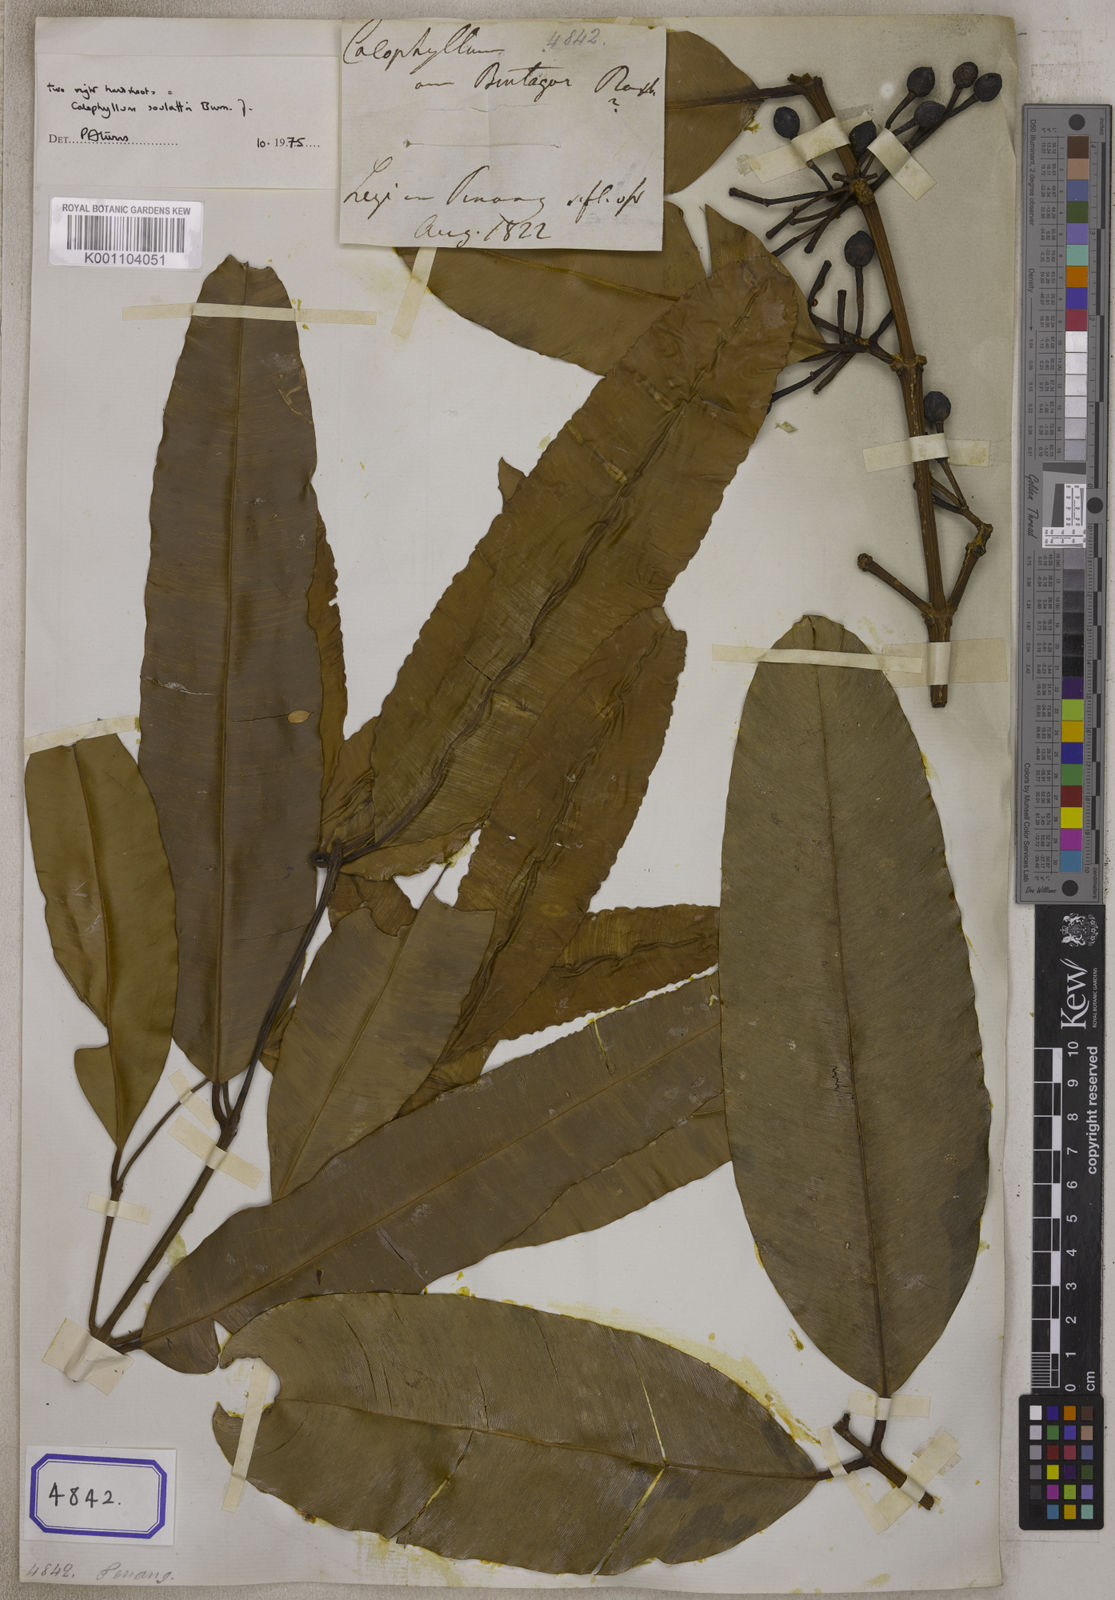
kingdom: Plantae
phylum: Tracheophyta
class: Magnoliopsida
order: Malpighiales
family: Calophyllaceae
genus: Calophyllum
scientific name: Calophyllum tacamahaca
